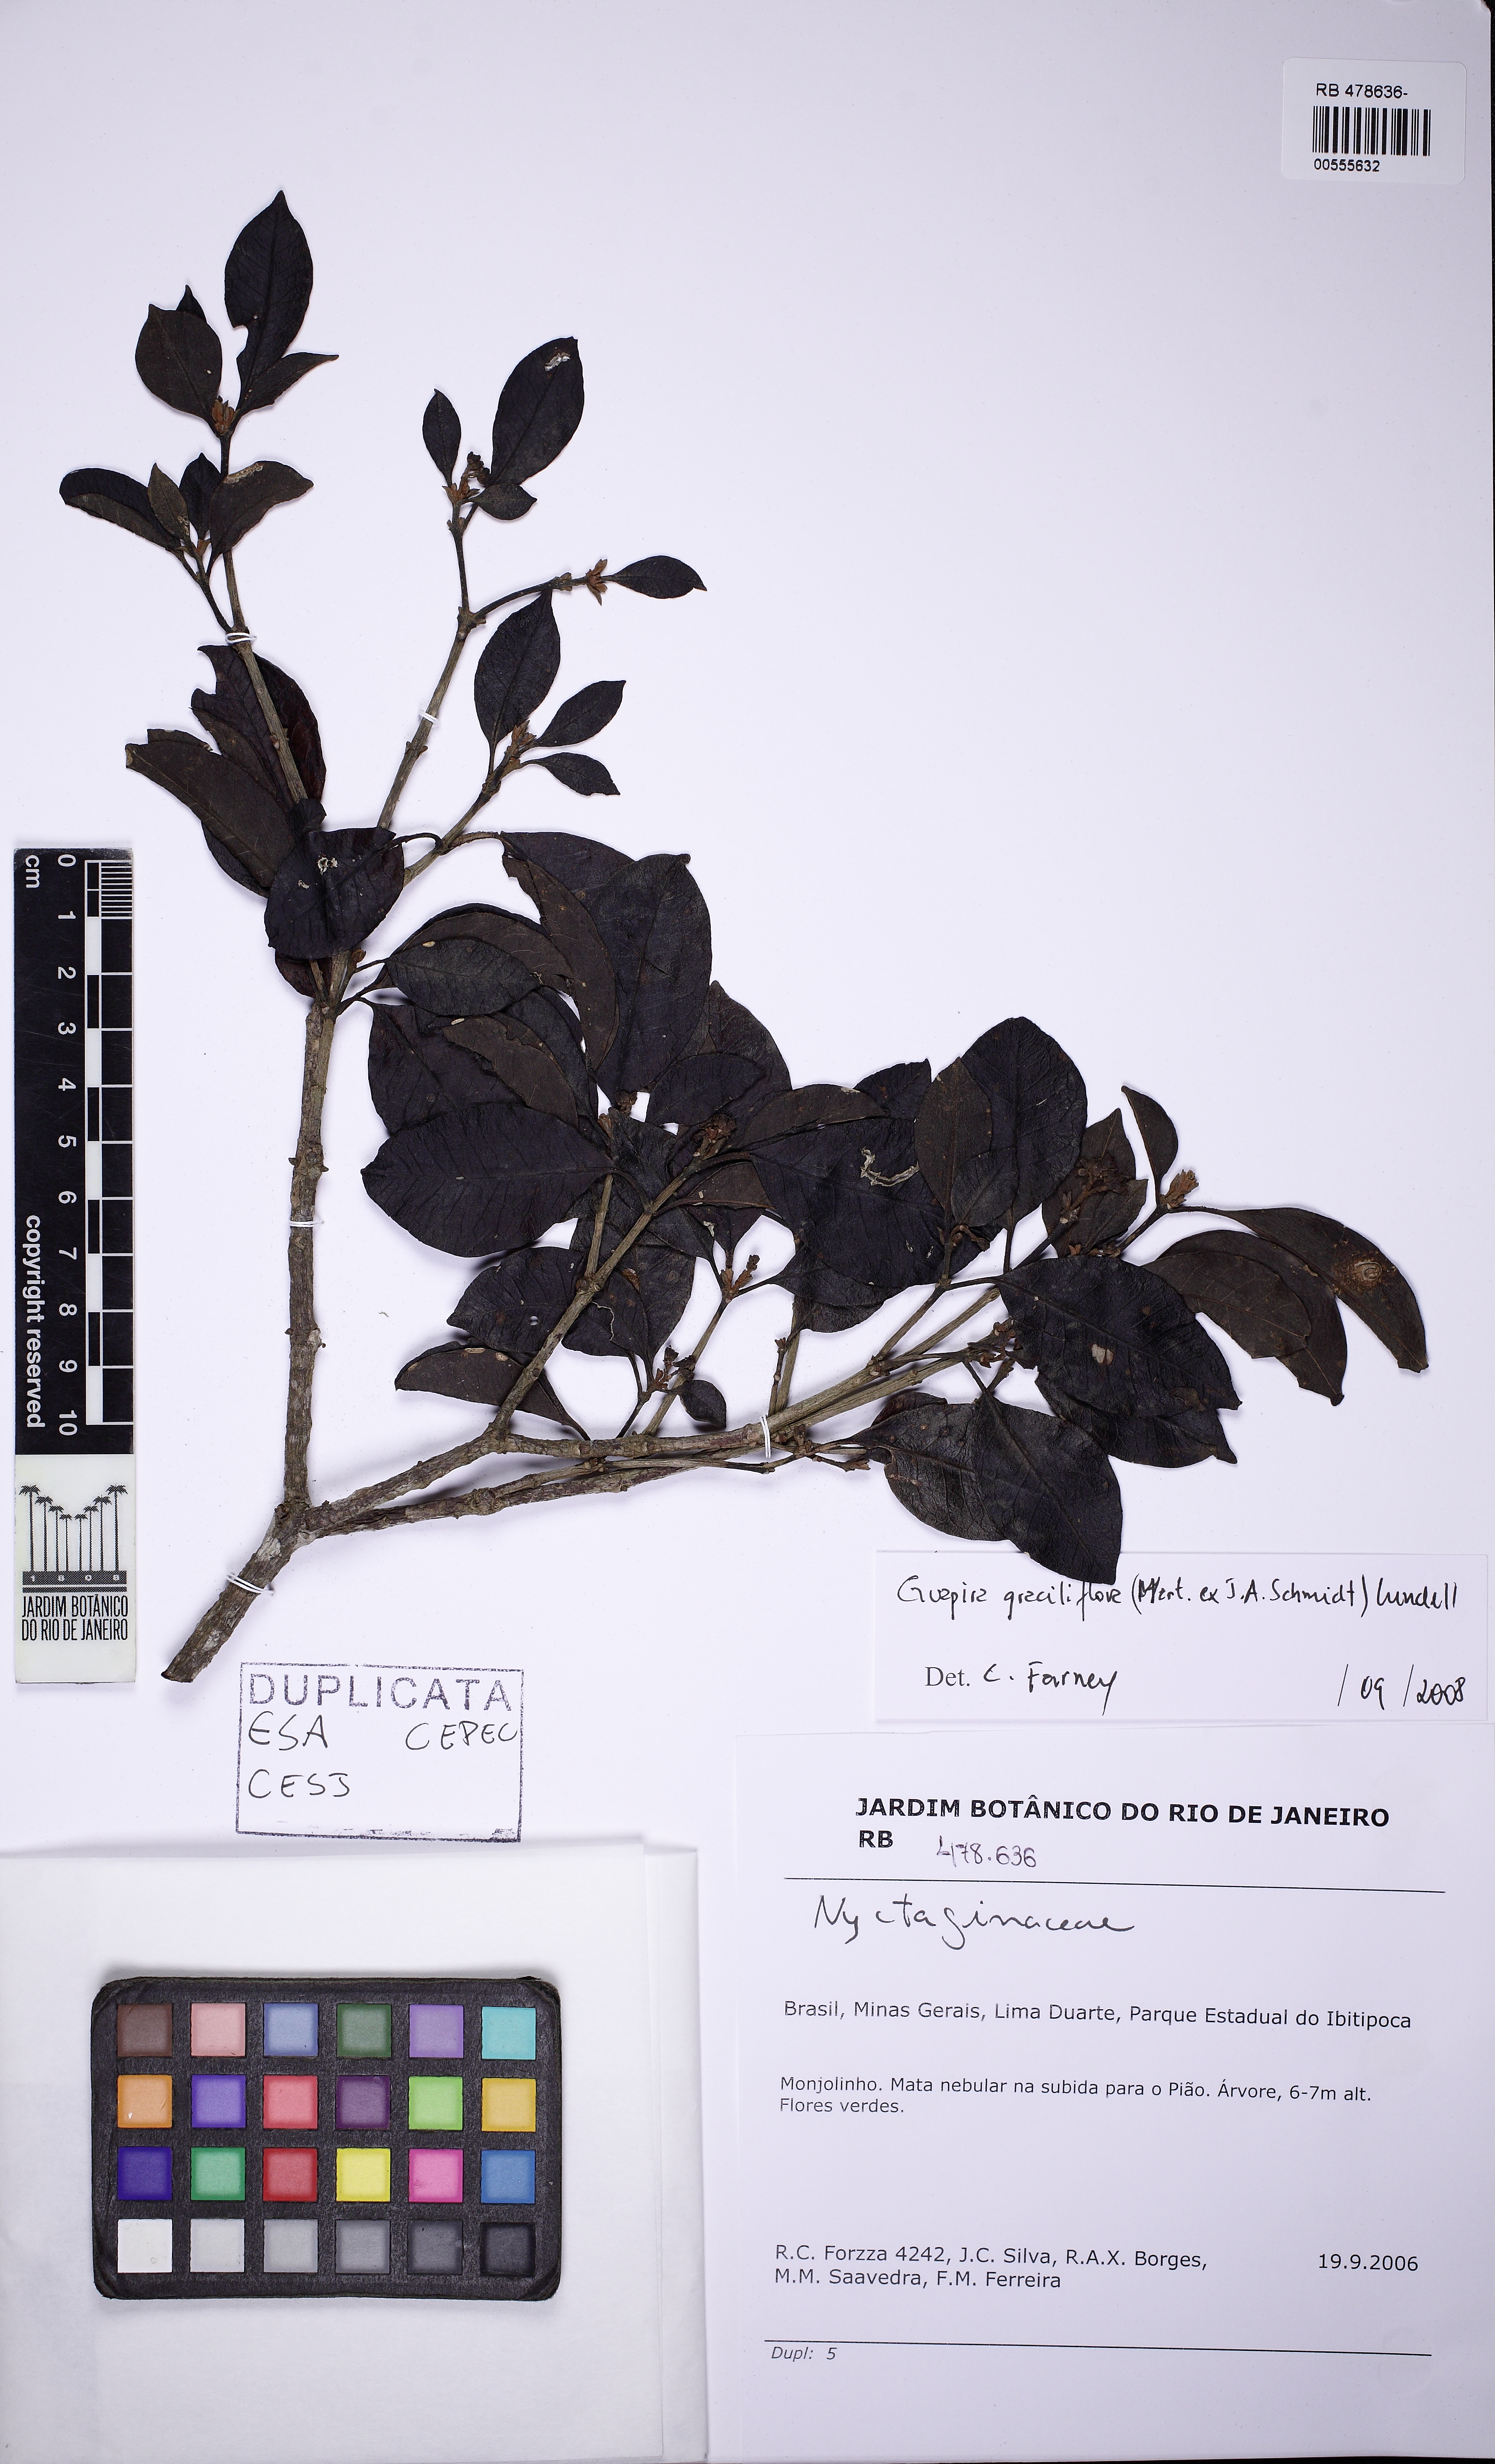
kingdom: Plantae
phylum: Tracheophyta
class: Magnoliopsida
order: Caryophyllales
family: Nyctaginaceae
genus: Guapira
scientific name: Guapira graciliflora
